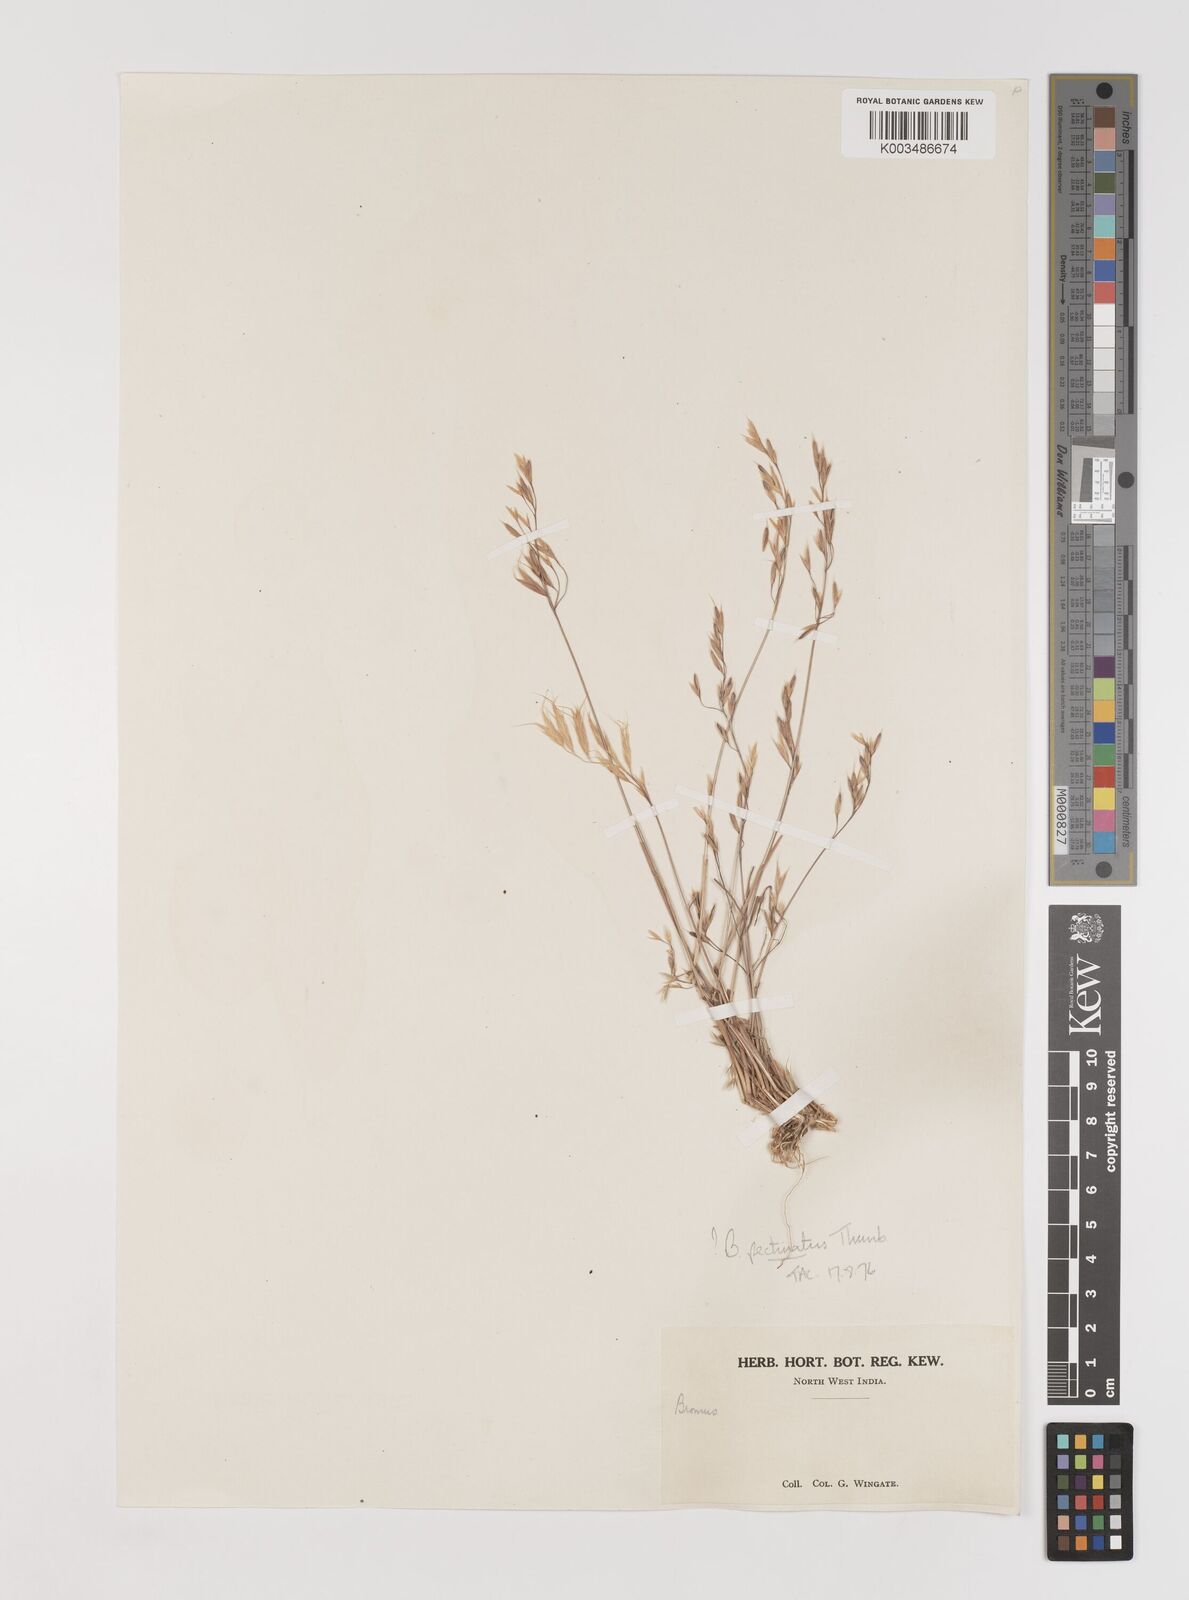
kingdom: Plantae
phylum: Tracheophyta
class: Liliopsida
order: Poales
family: Poaceae
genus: Bromus
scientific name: Bromus pectinatus
